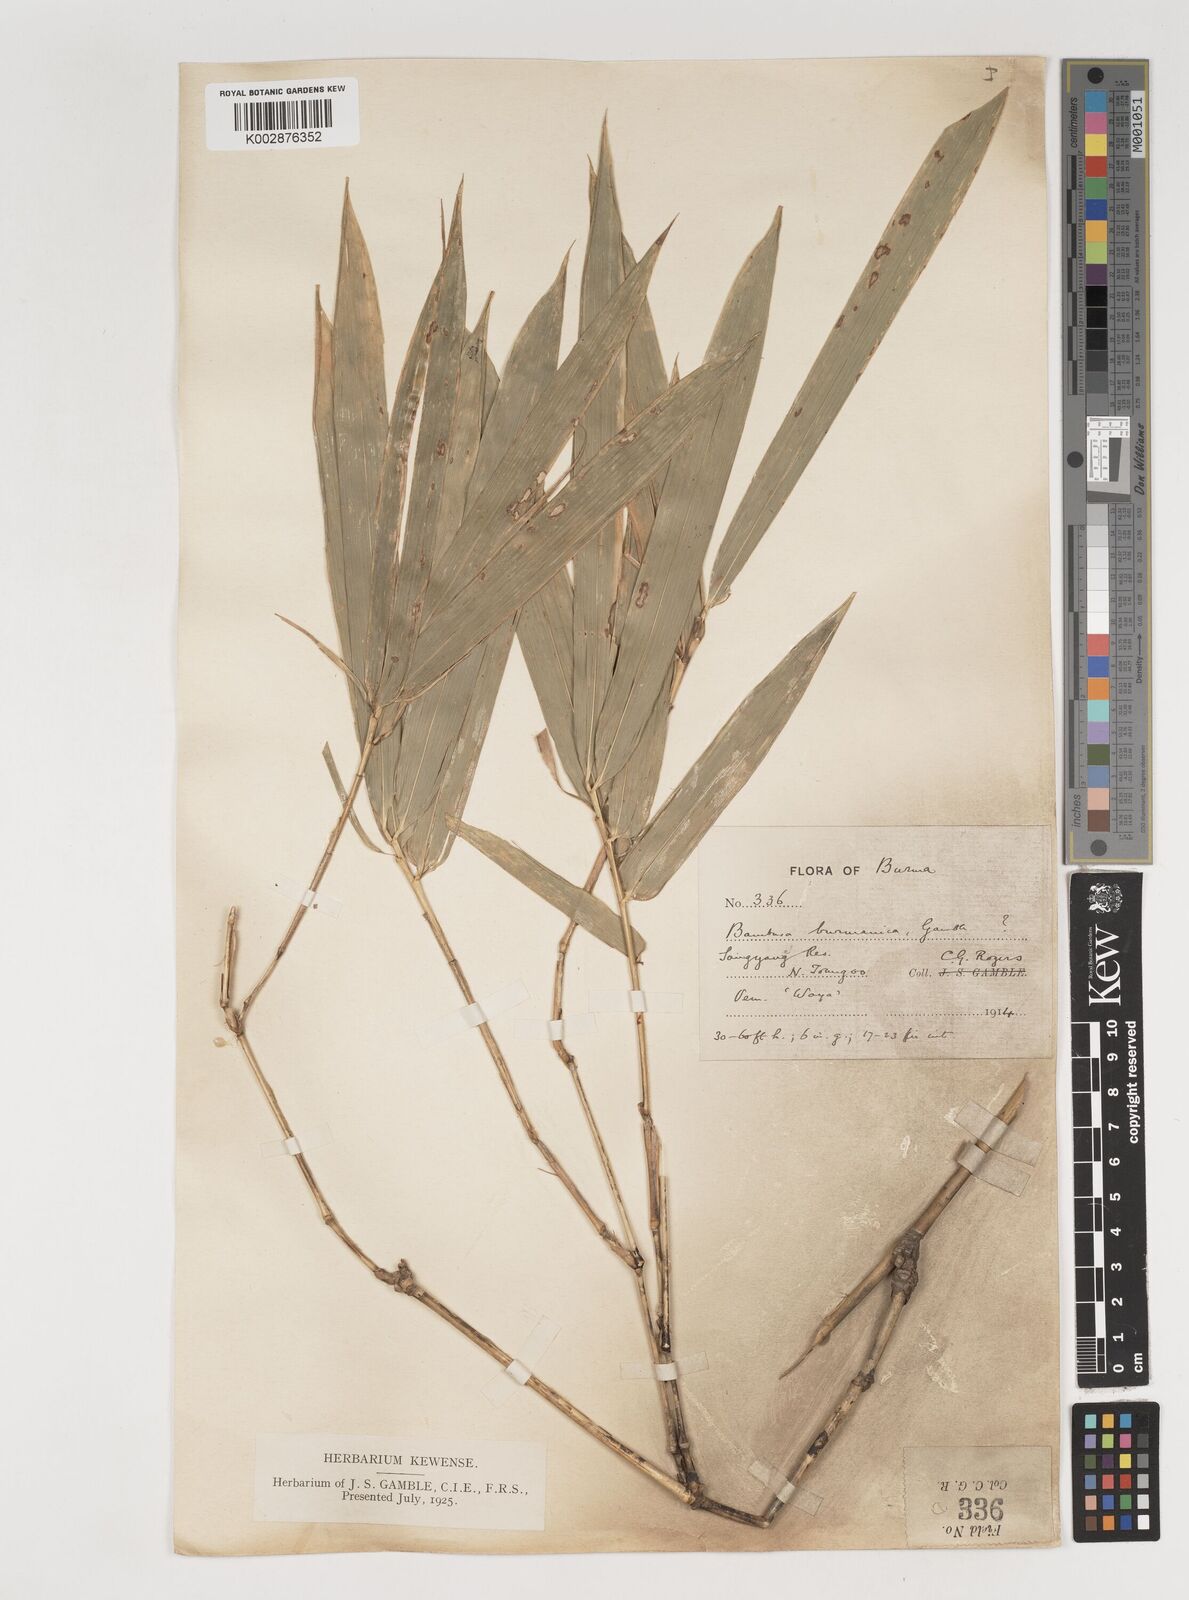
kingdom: Plantae
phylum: Tracheophyta
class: Liliopsida
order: Poales
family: Poaceae
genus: Bambusa
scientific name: Bambusa burmanica
